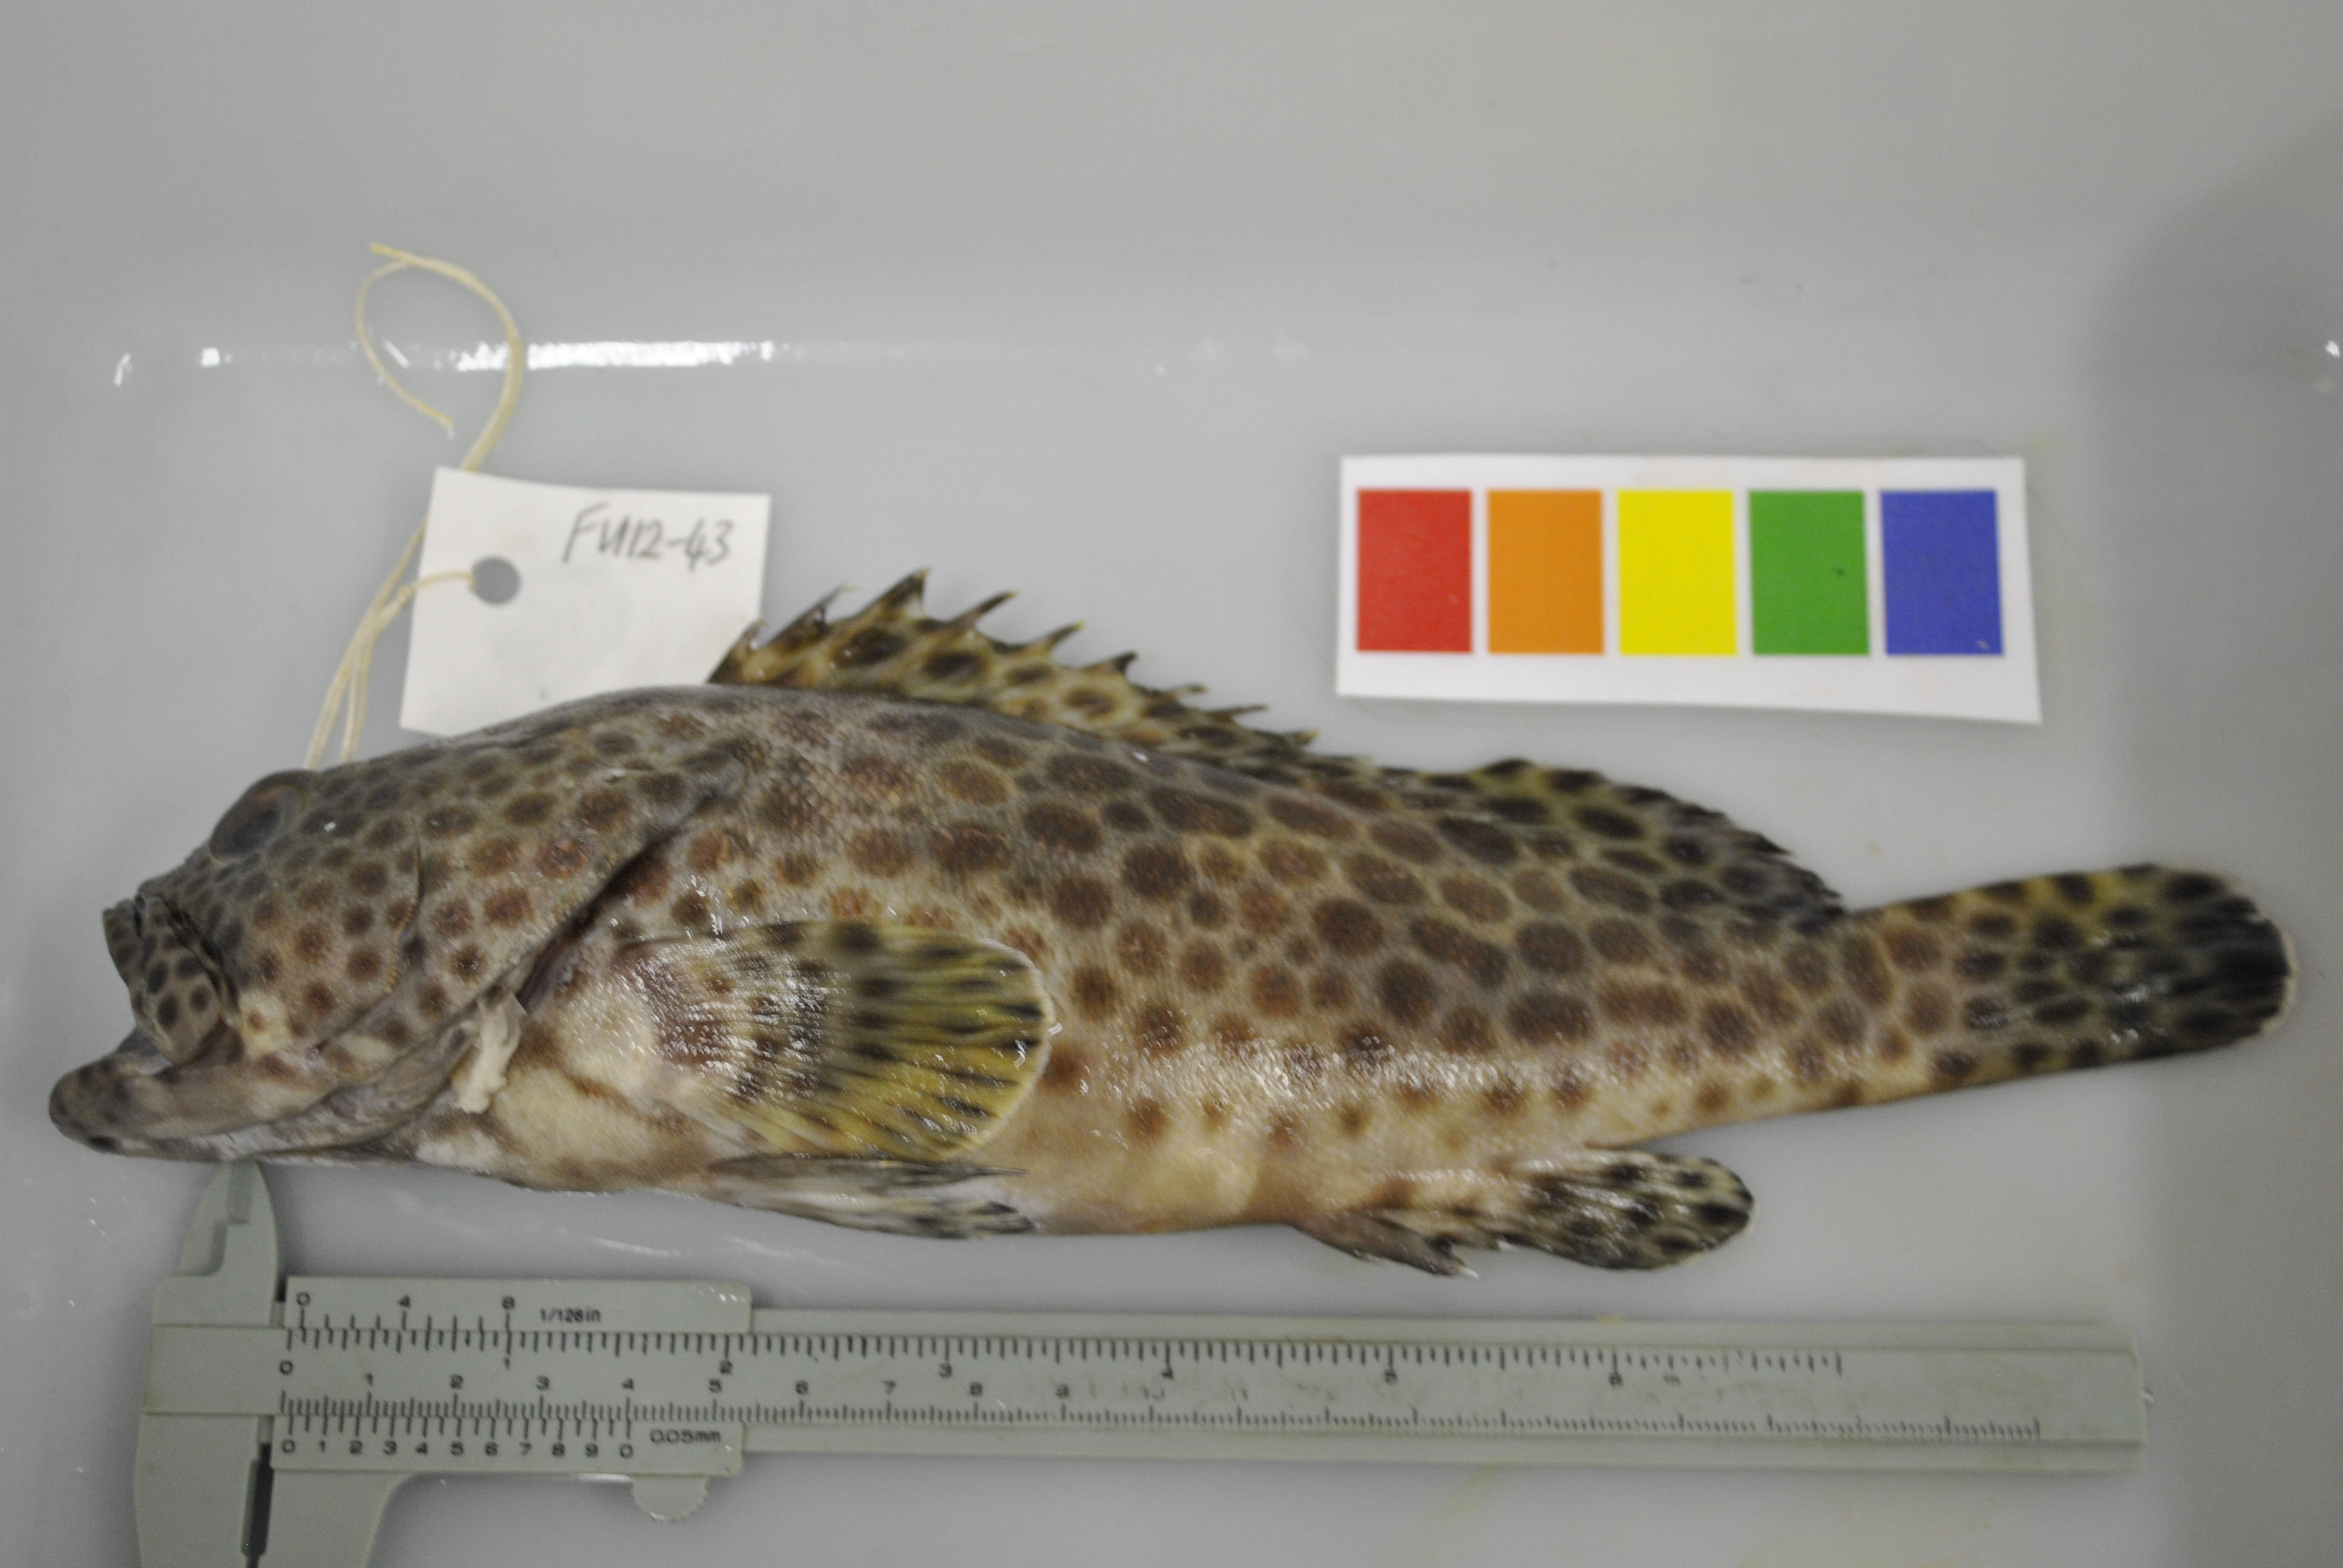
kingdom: Animalia
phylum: Chordata
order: Perciformes
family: Serranidae
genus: Epinephelus
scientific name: Epinephelus faveatus
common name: Barred-chest grouper
